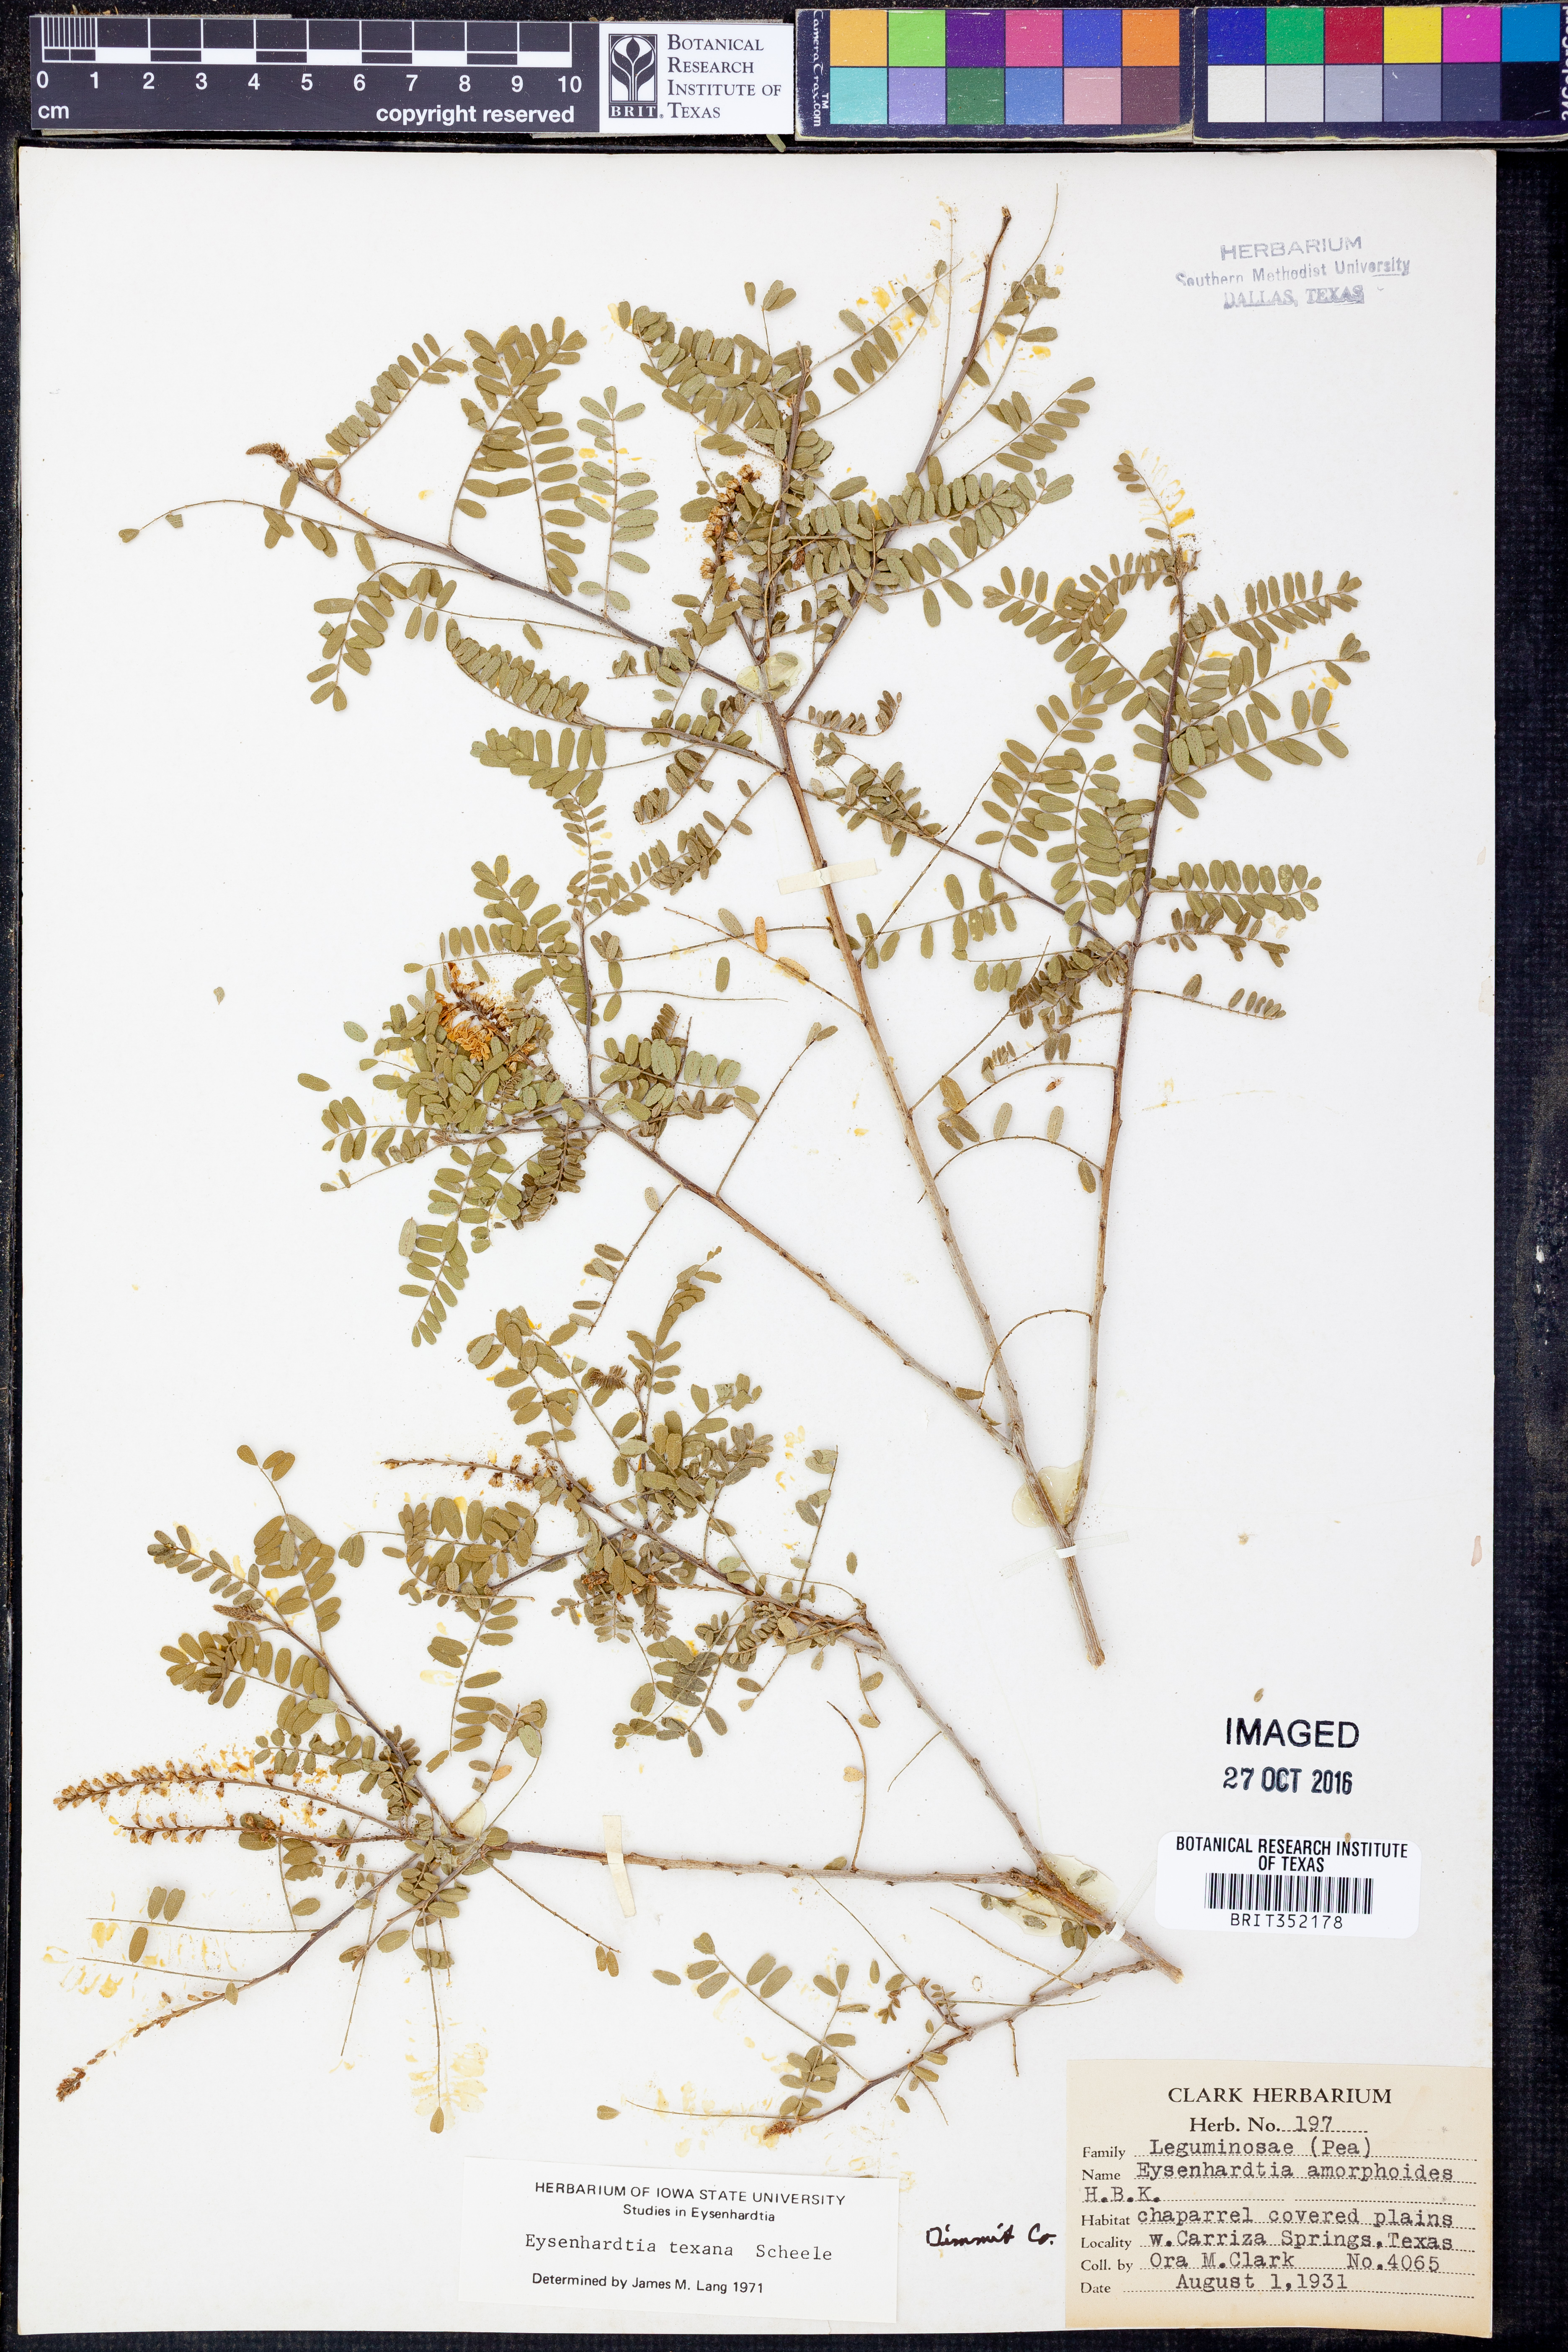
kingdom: Plantae
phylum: Tracheophyta
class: Magnoliopsida
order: Fabales
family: Fabaceae
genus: Eysenhardtia
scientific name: Eysenhardtia texana
